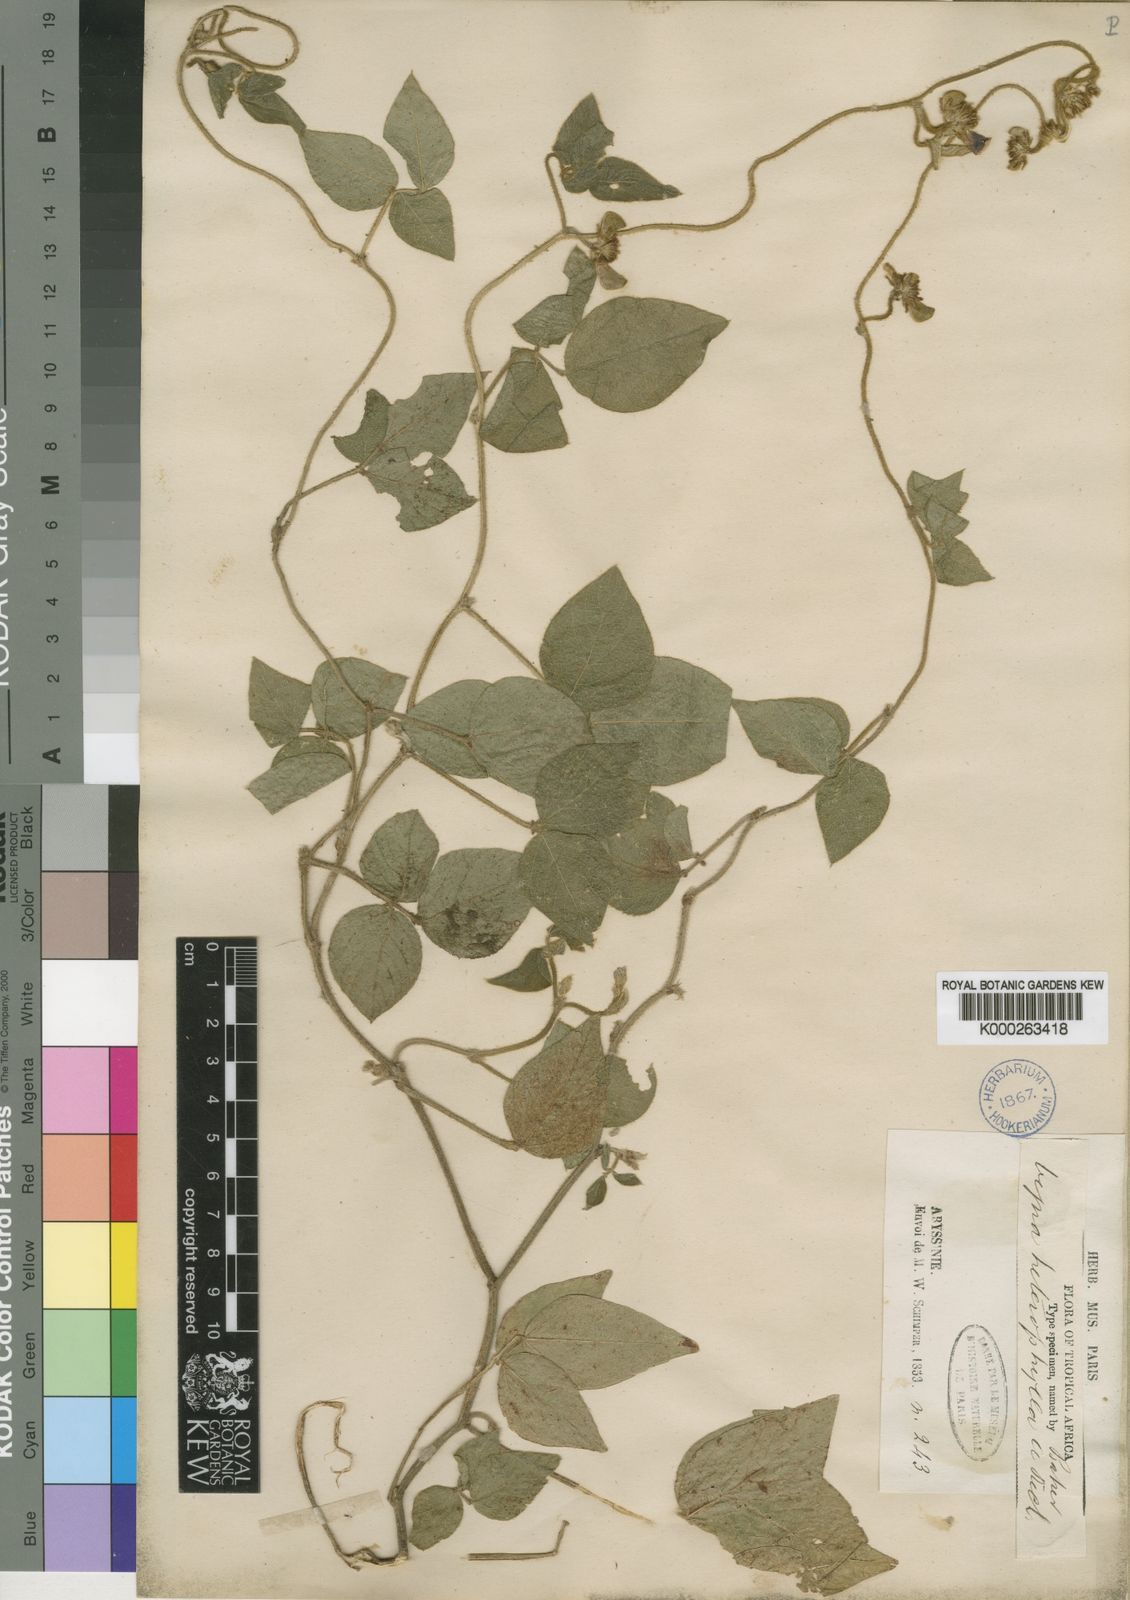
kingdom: Plantae
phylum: Tracheophyta
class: Magnoliopsida
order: Fabales
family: Fabaceae
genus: Vigna
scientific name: Vigna heterophylla
